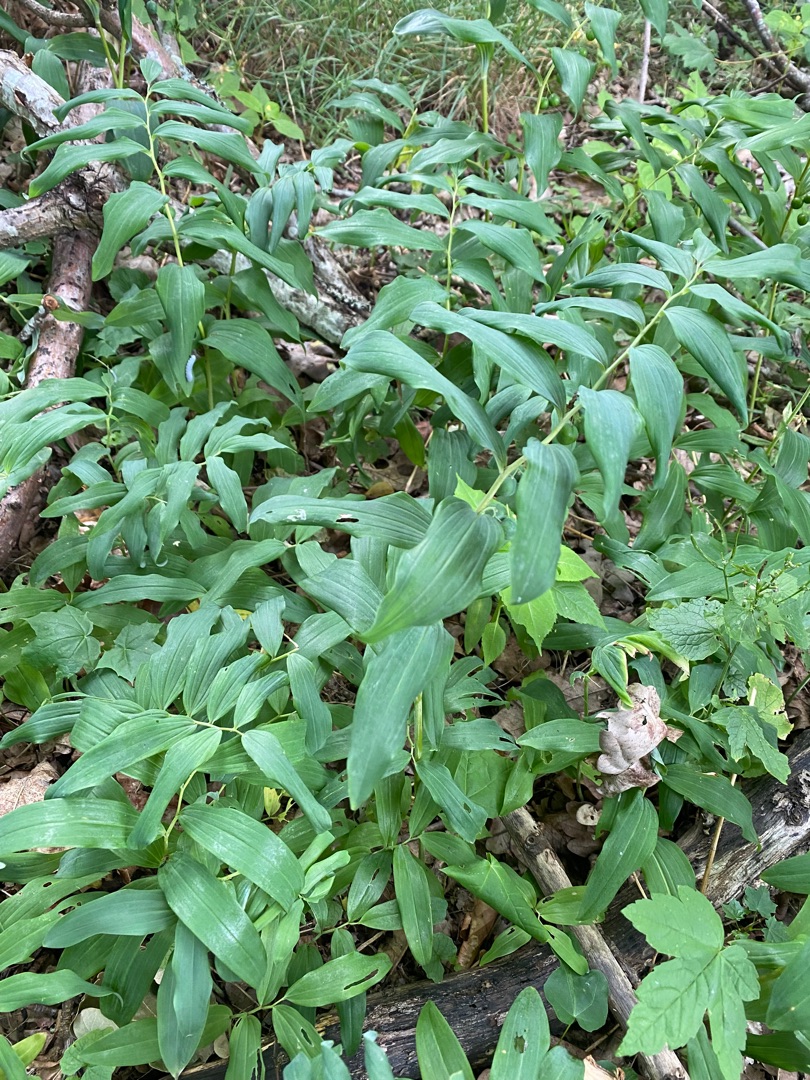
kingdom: Plantae
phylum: Tracheophyta
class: Liliopsida
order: Asparagales
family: Asparagaceae
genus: Polygonatum
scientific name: Polygonatum
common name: Hybrid-konval
